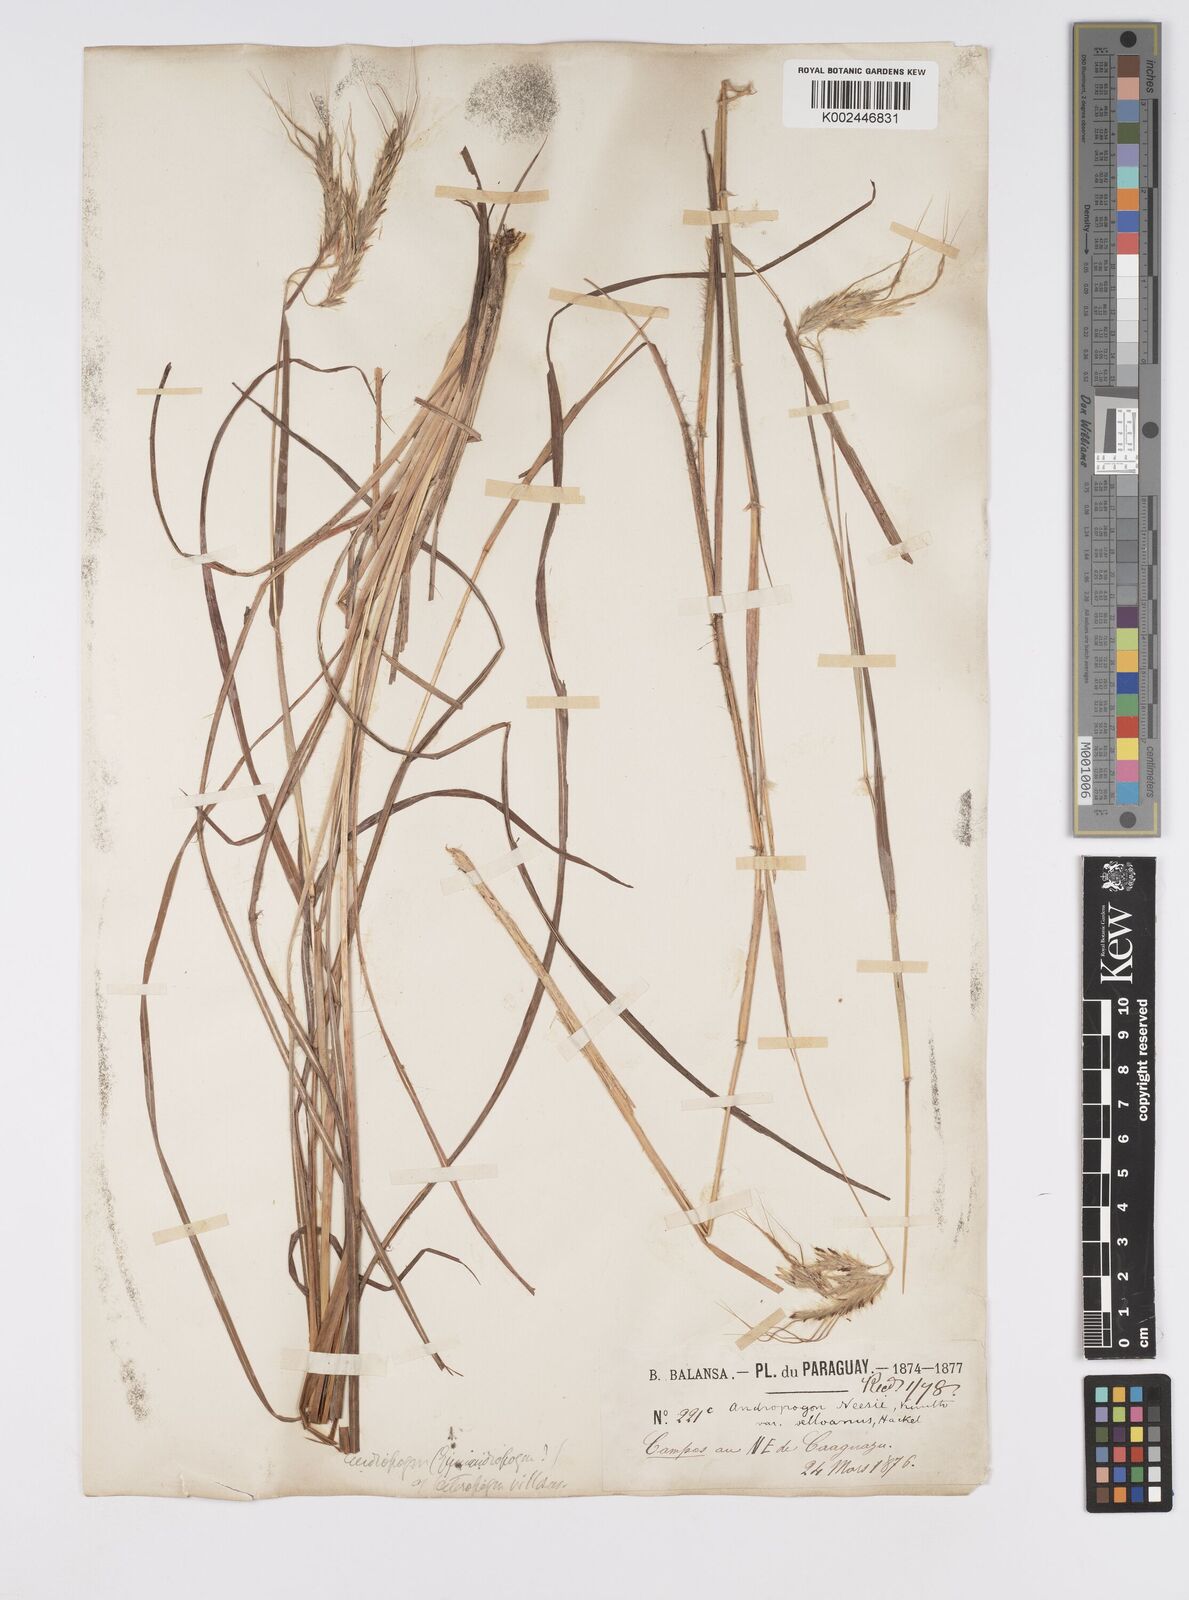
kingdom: Plantae
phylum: Tracheophyta
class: Liliopsida
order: Poales
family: Poaceae
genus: Agenium
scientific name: Agenium villosum
